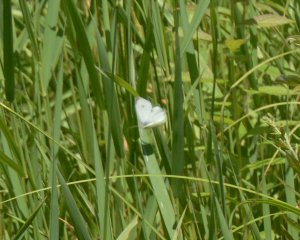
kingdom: Animalia
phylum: Arthropoda
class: Insecta
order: Lepidoptera
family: Pieridae
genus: Pieris
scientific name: Pieris rapae
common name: Cabbage White
